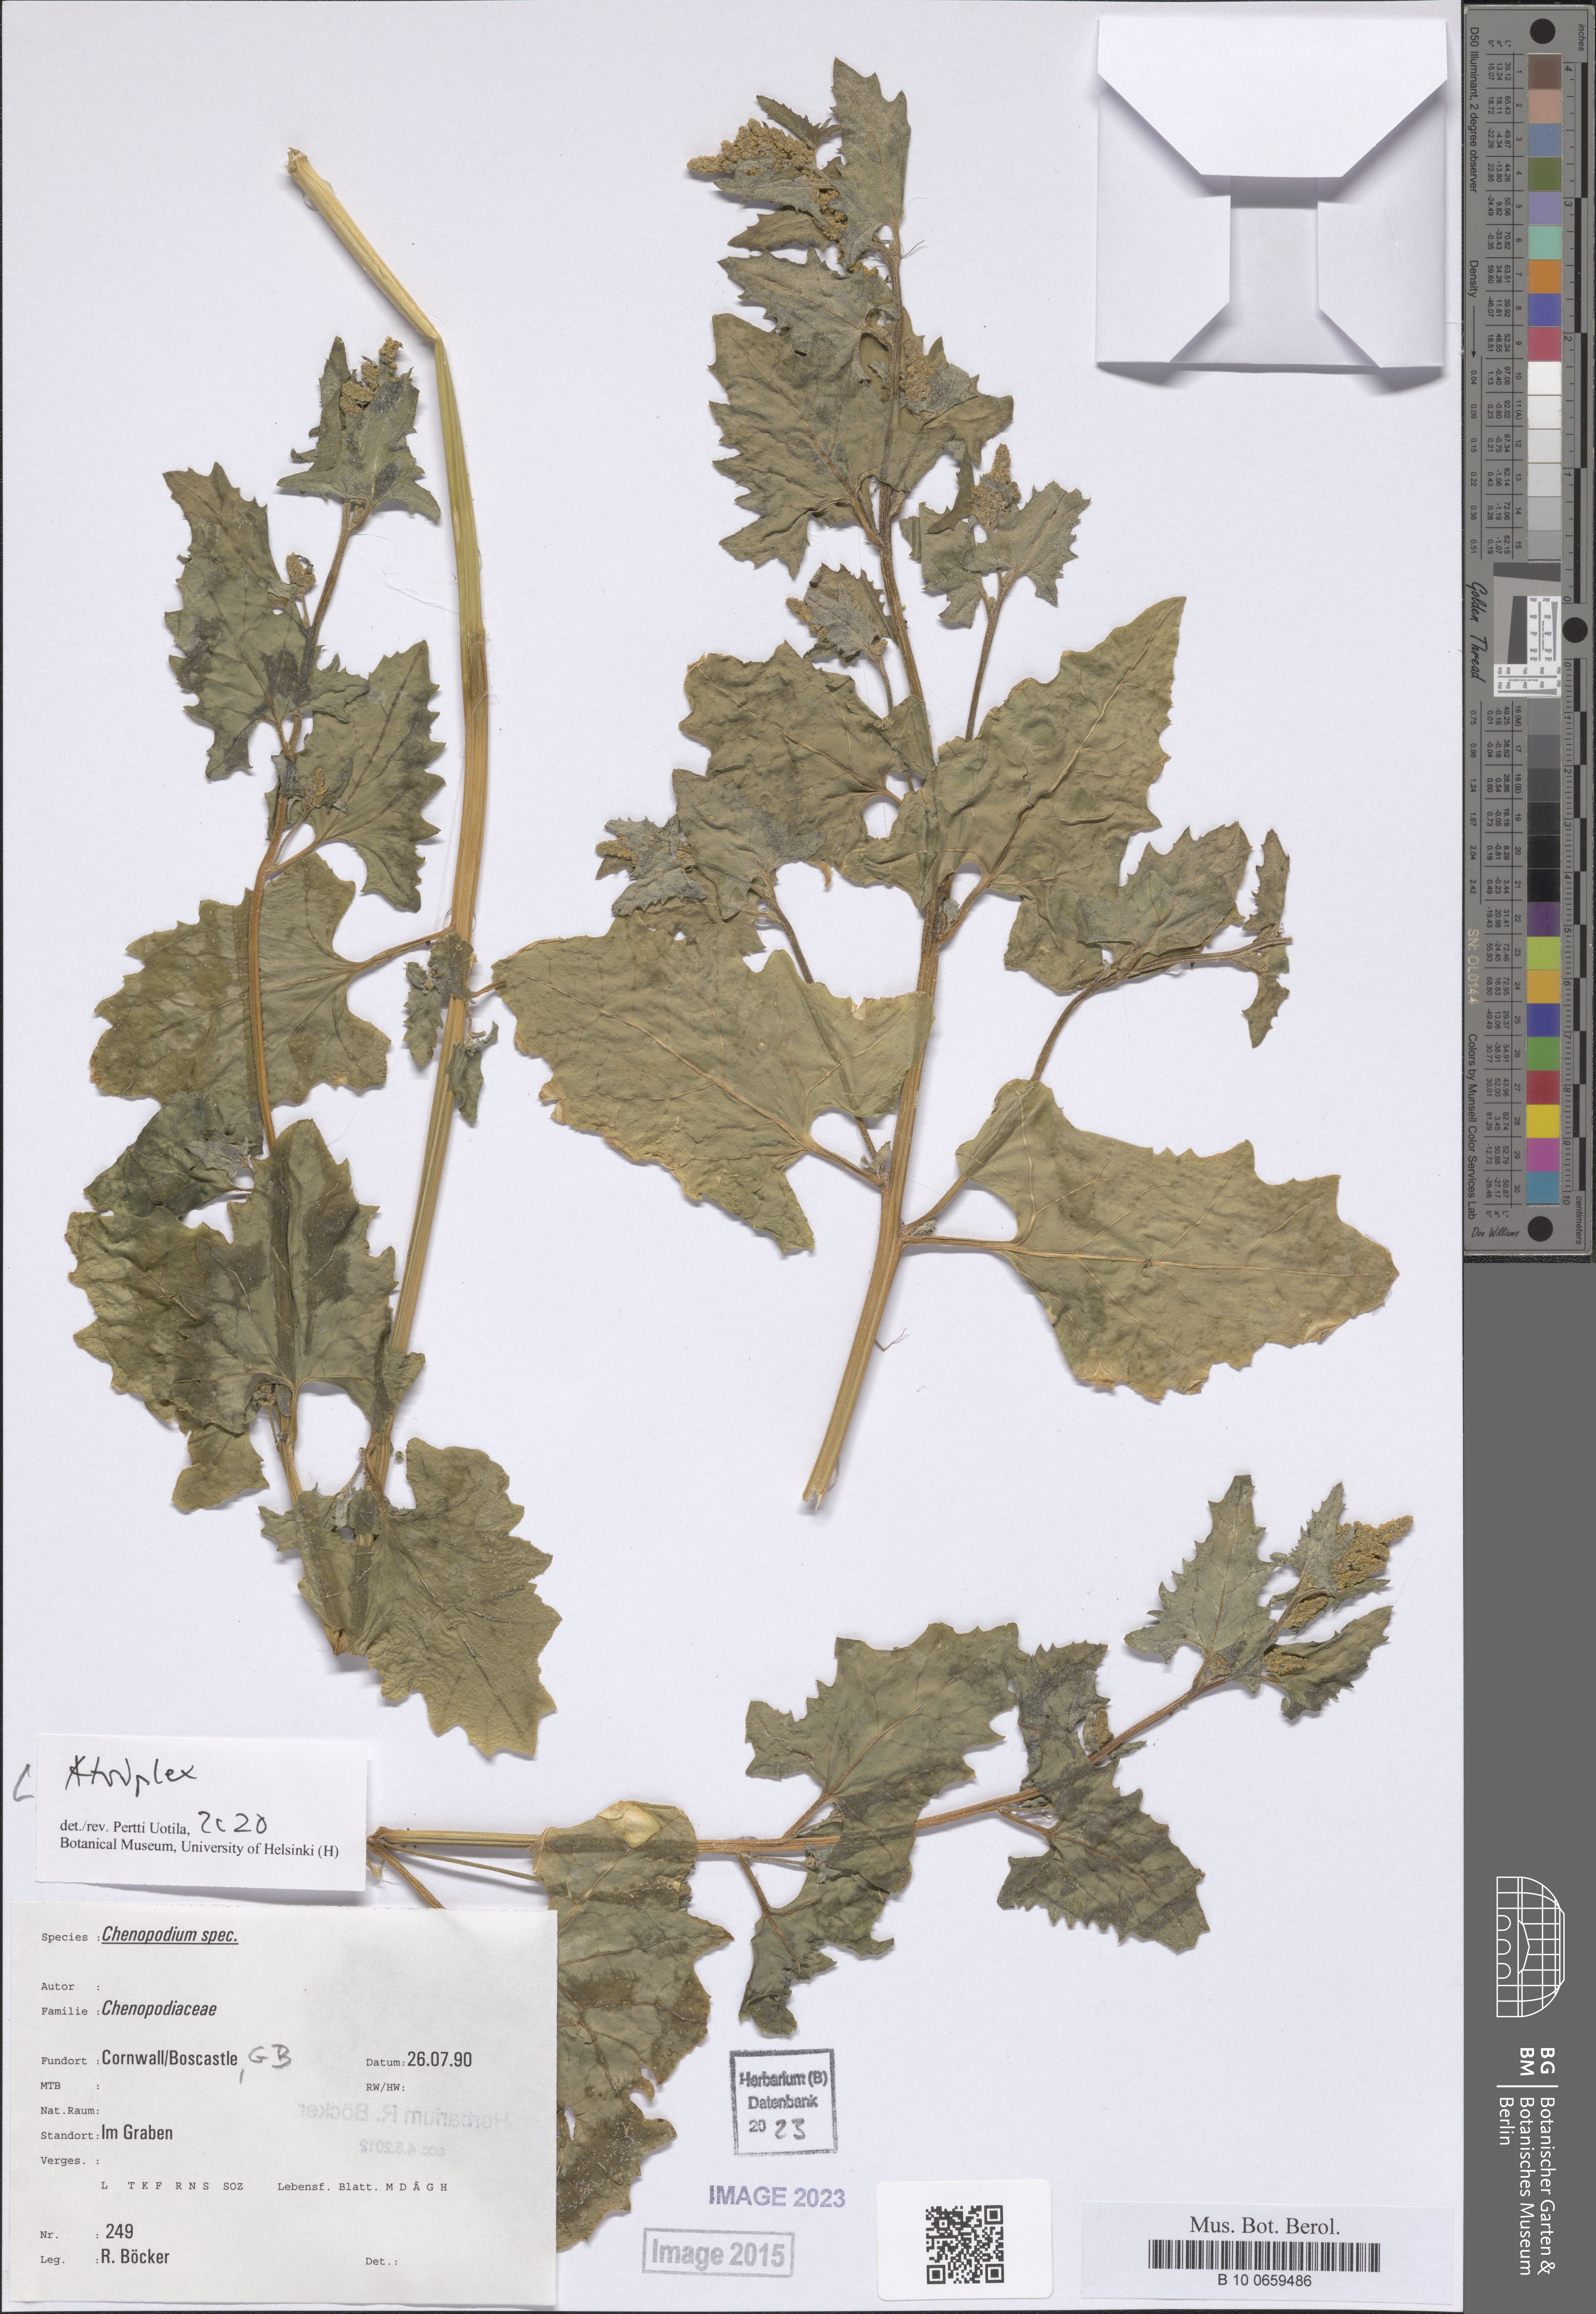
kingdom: Plantae
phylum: Tracheophyta
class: Magnoliopsida
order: Caryophyllales
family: Amaranthaceae
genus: Atriplex
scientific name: Atriplex
